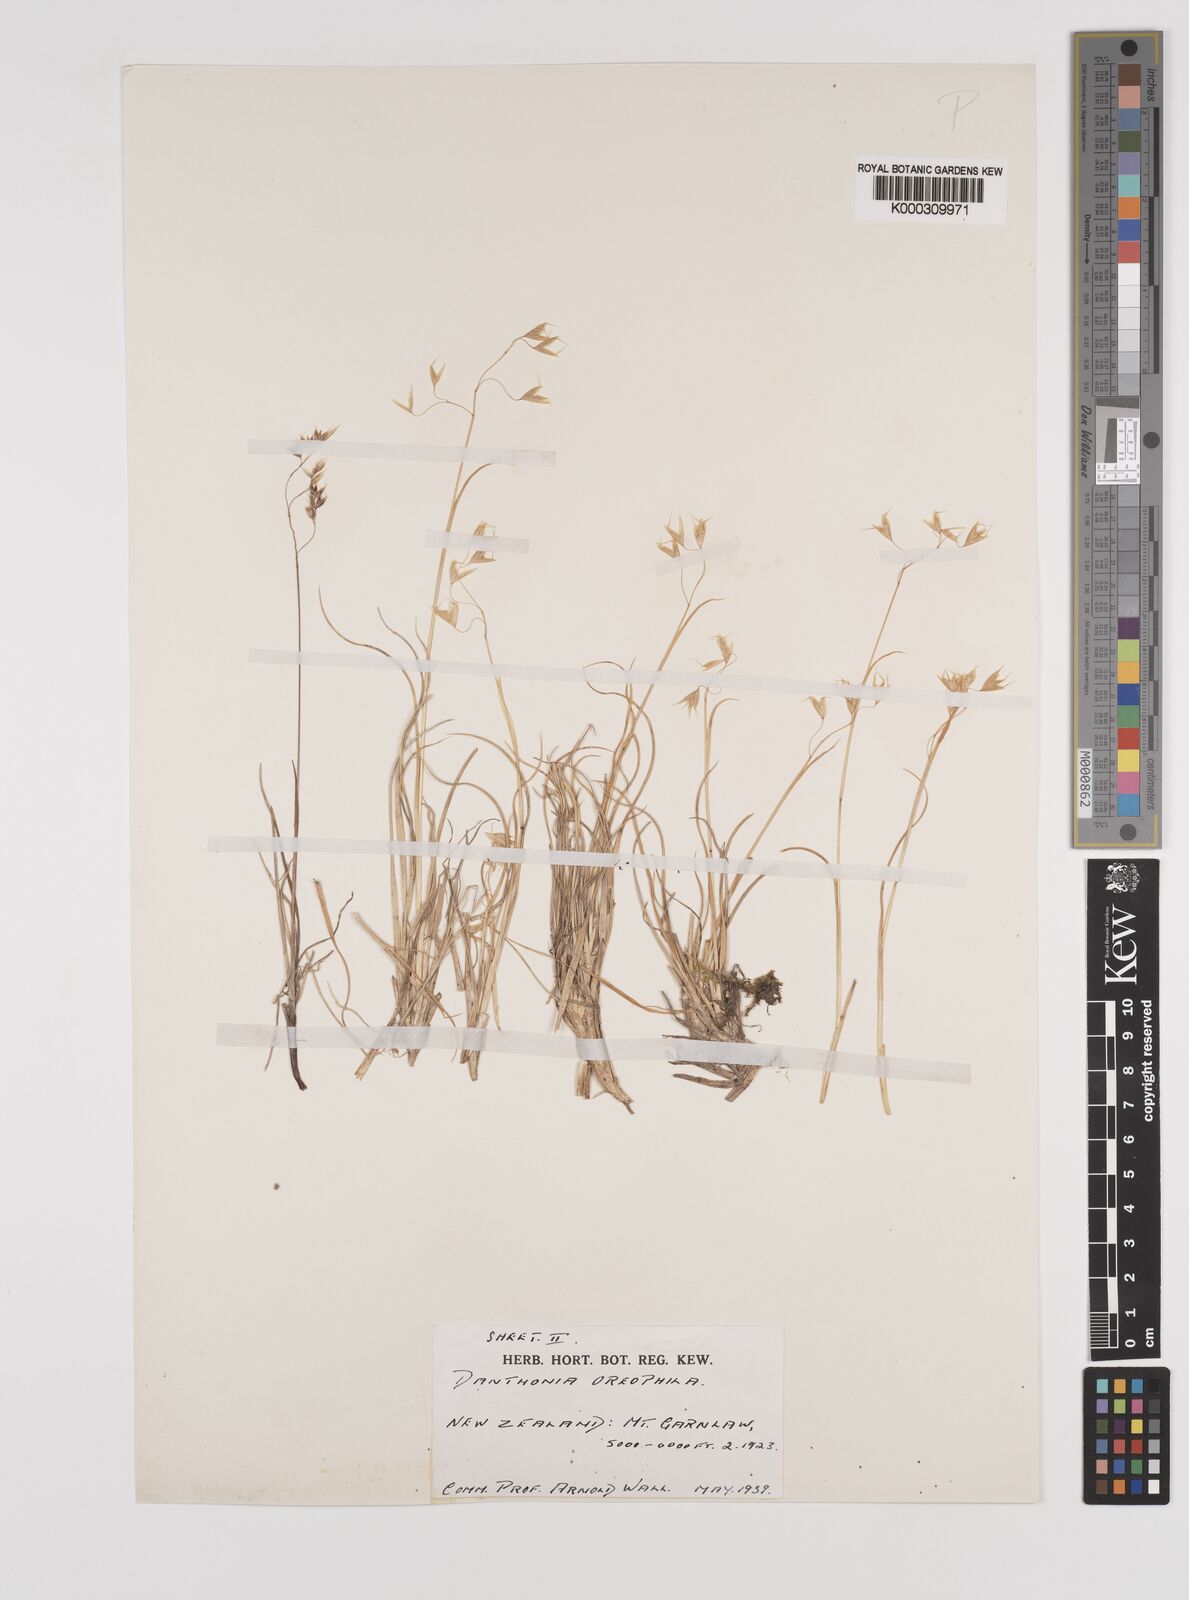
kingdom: Plantae
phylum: Tracheophyta
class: Liliopsida
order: Poales
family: Poaceae
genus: Chionochloa
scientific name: Chionochloa oreophila
